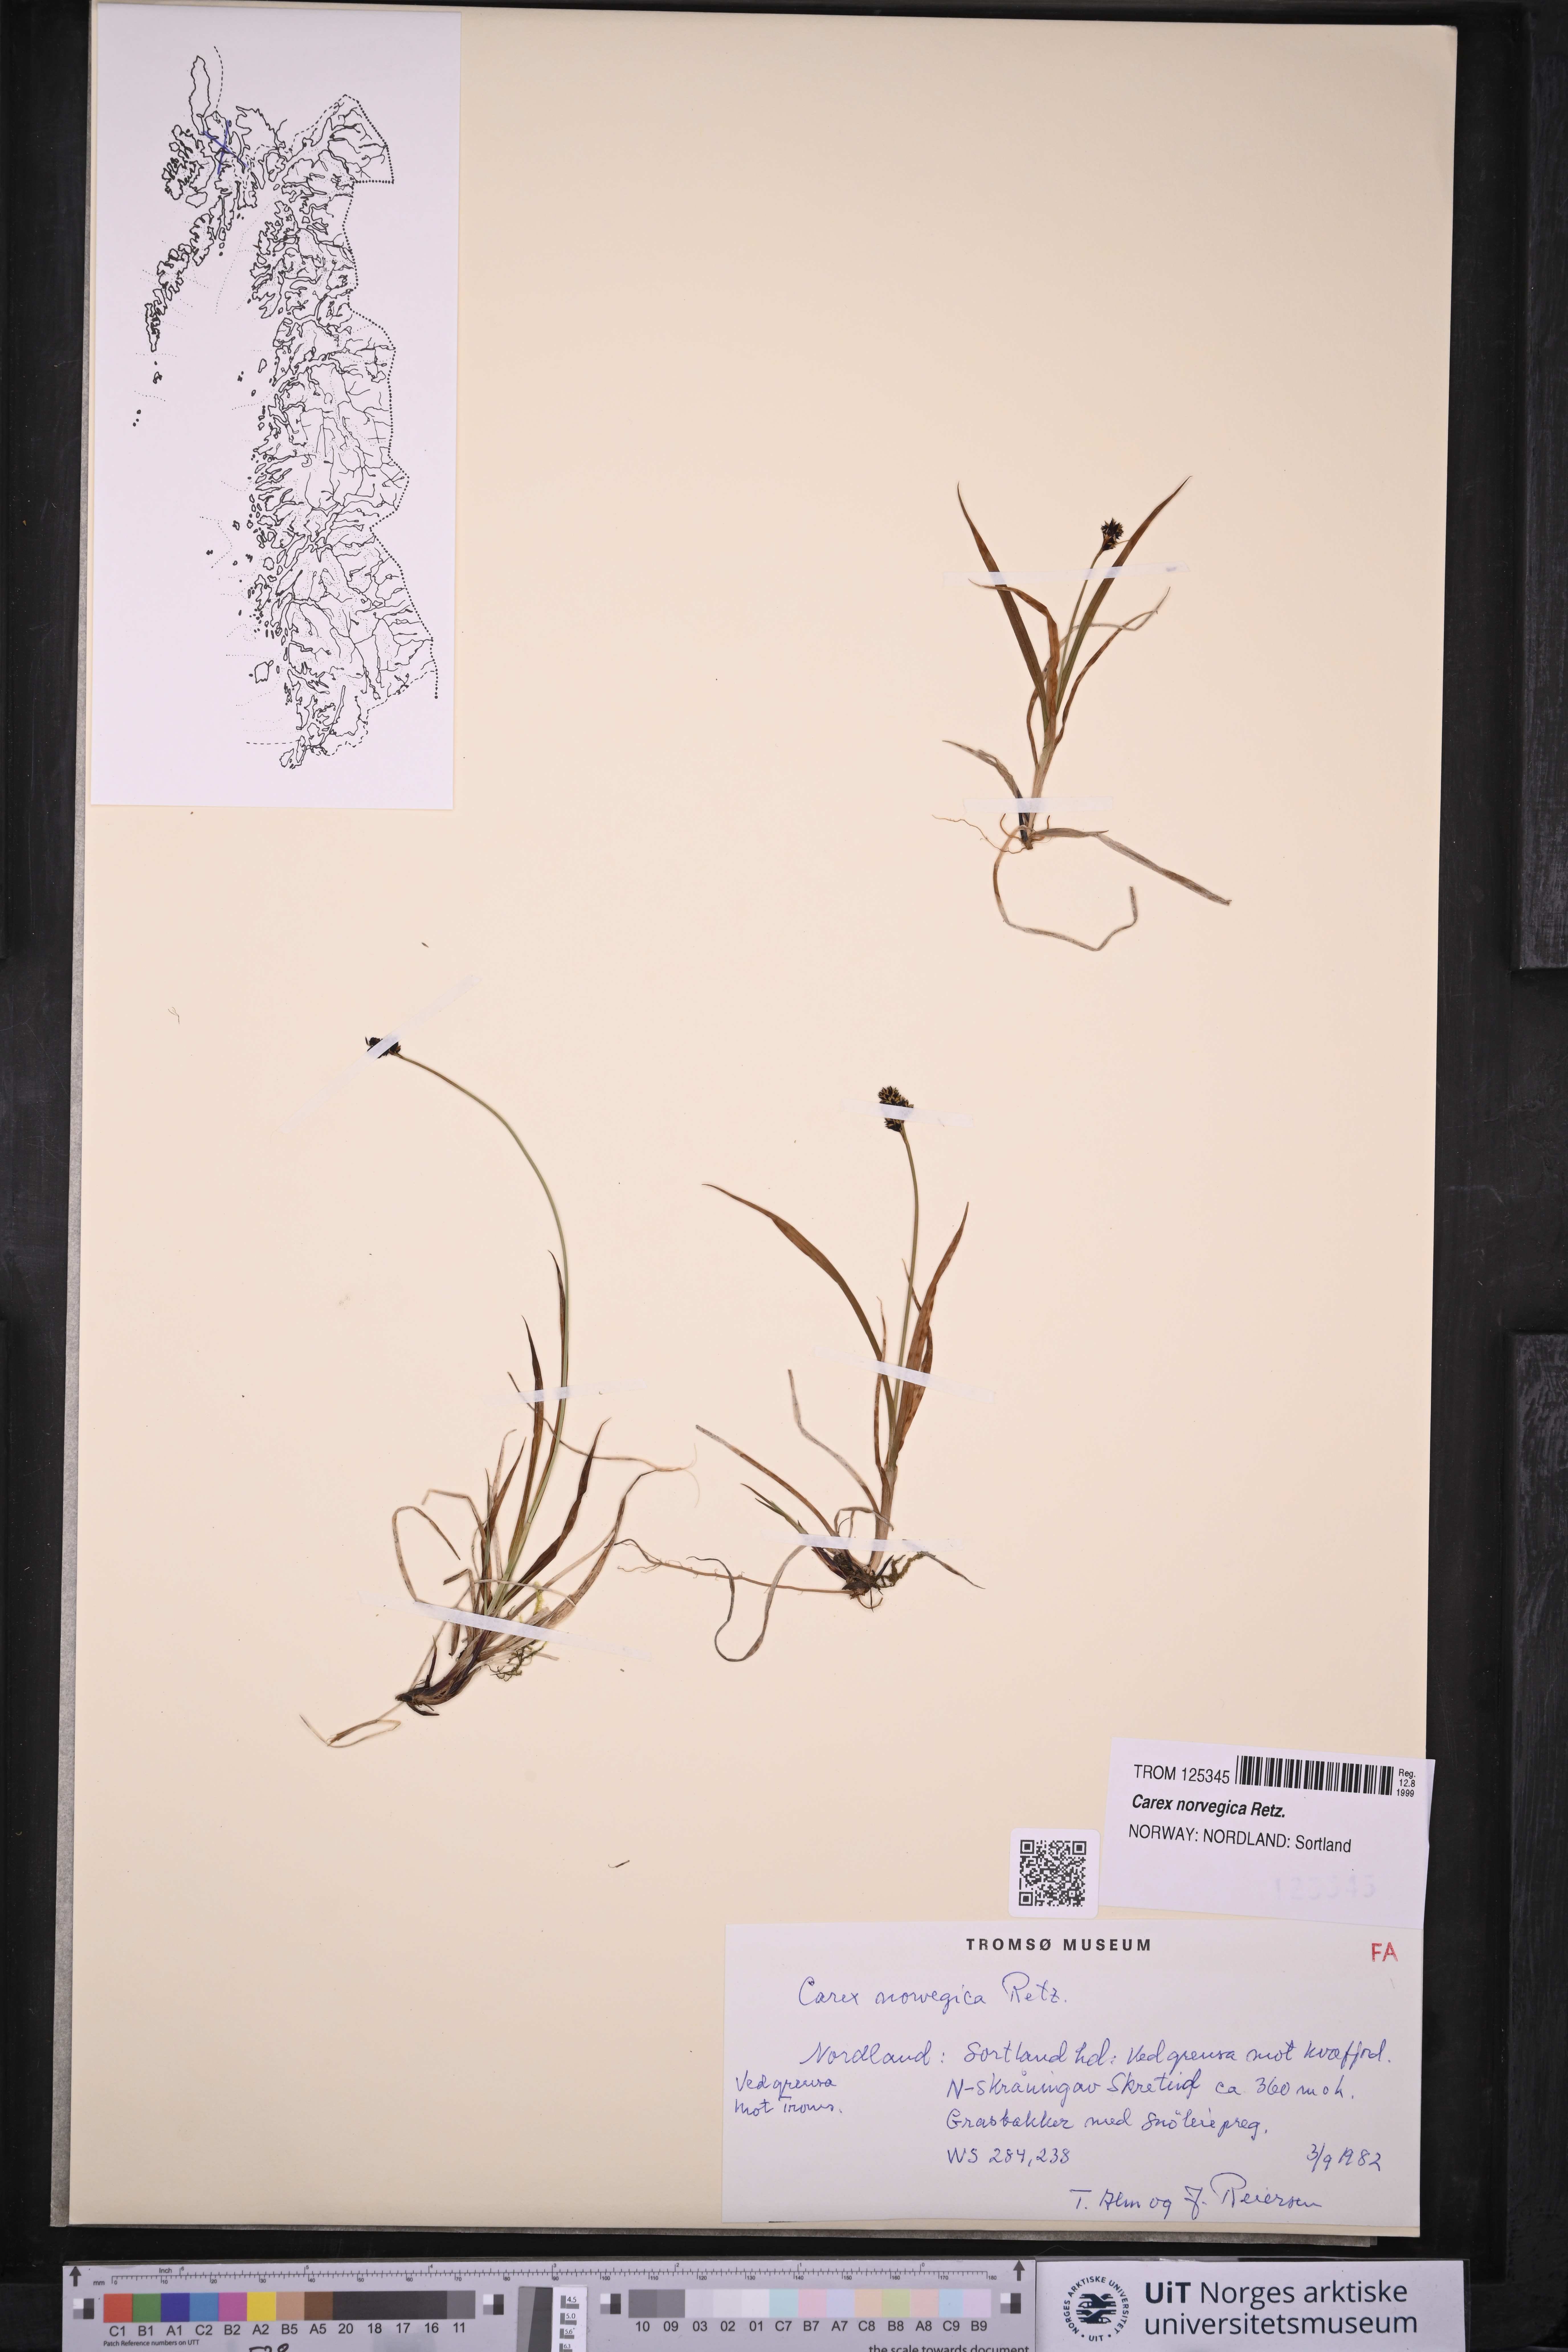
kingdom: Plantae
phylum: Tracheophyta
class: Liliopsida
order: Poales
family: Cyperaceae
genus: Carex
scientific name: Carex norvegica
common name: Close-headed alpine-sedge
